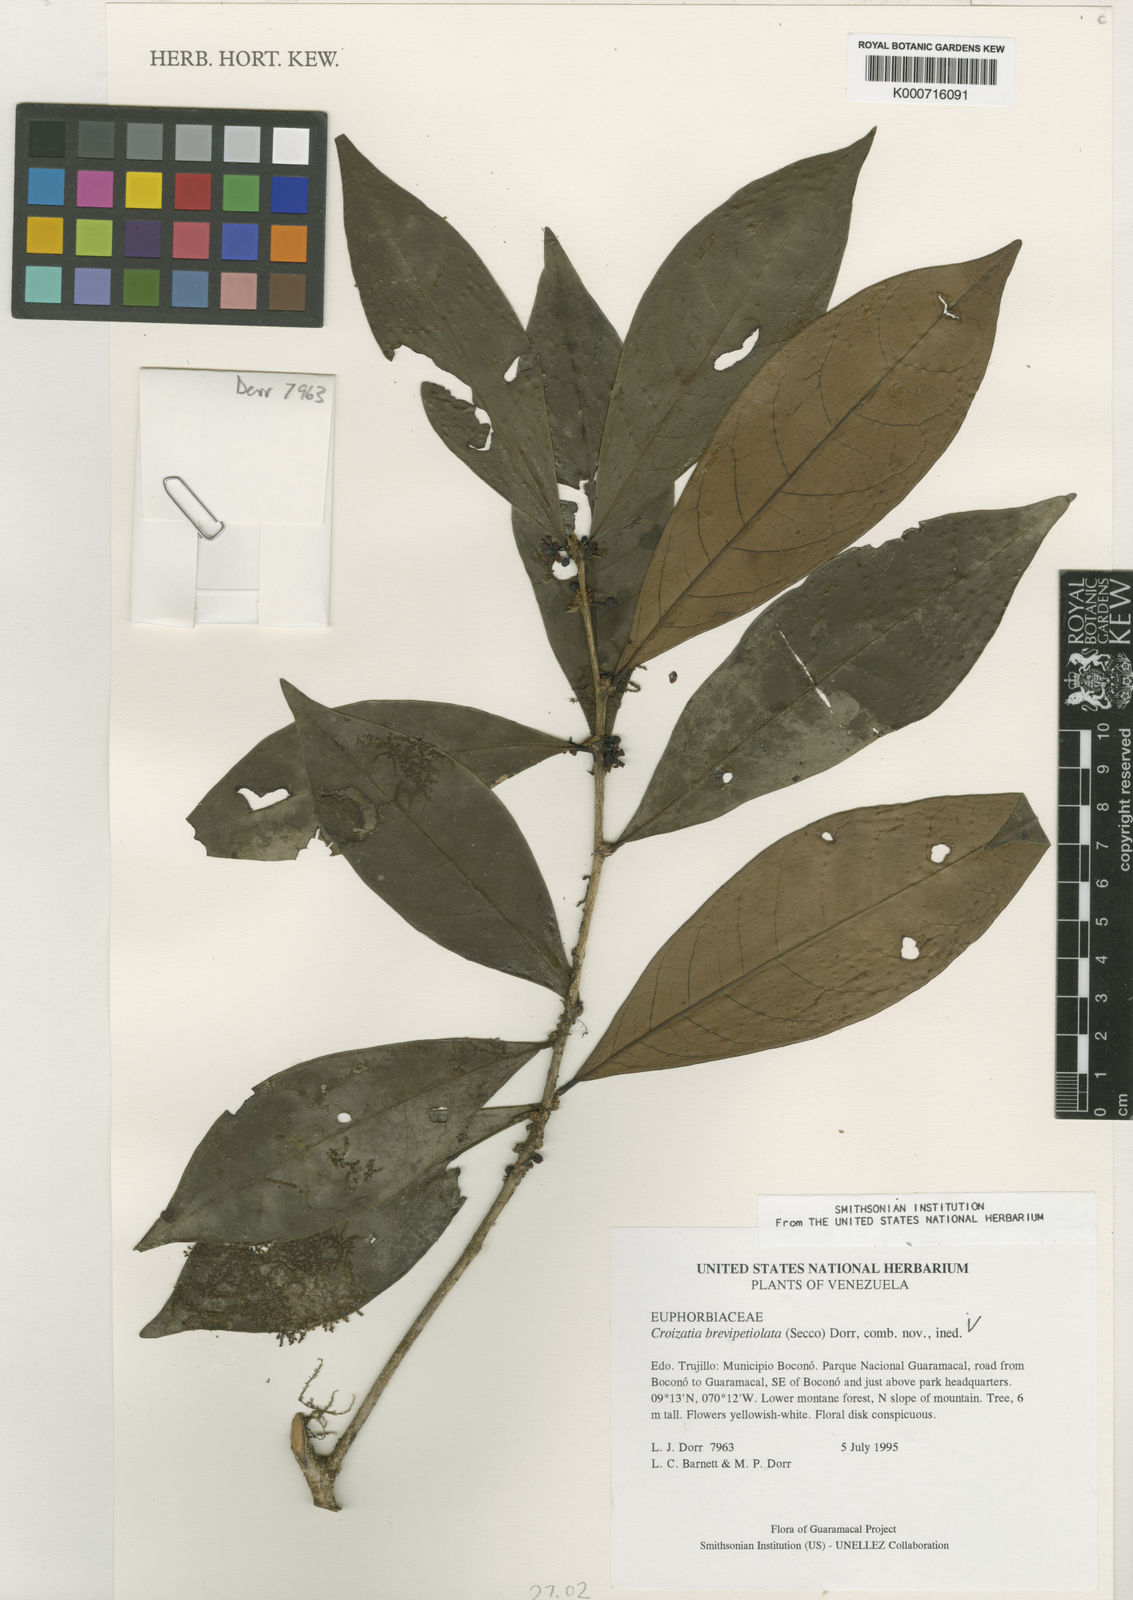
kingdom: Plantae
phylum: Tracheophyta
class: Magnoliopsida
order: Malpighiales
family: Phyllanthaceae
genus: Croizatia
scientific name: Croizatia brevipetiolata
